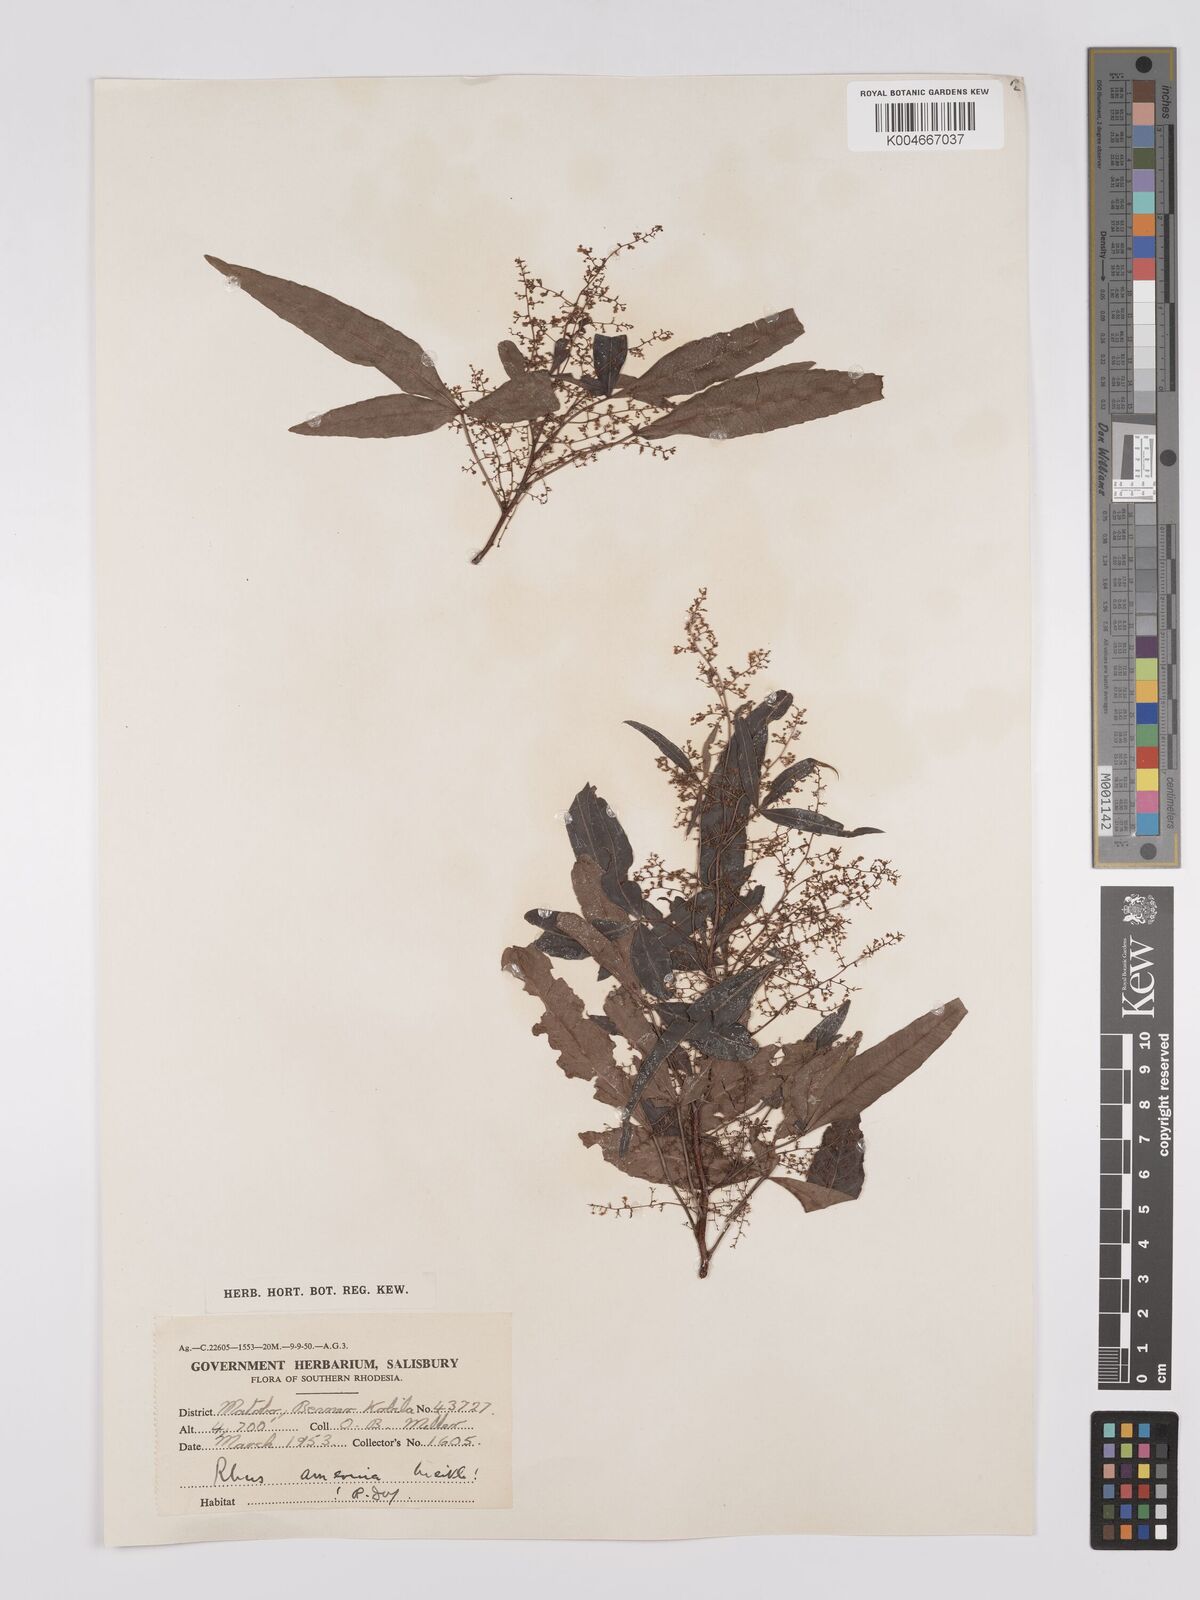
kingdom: Plantae
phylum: Tracheophyta
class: Magnoliopsida
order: Sapindales
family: Anacardiaceae
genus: Searsia
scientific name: Searsia leptodictya
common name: Mountain karee
